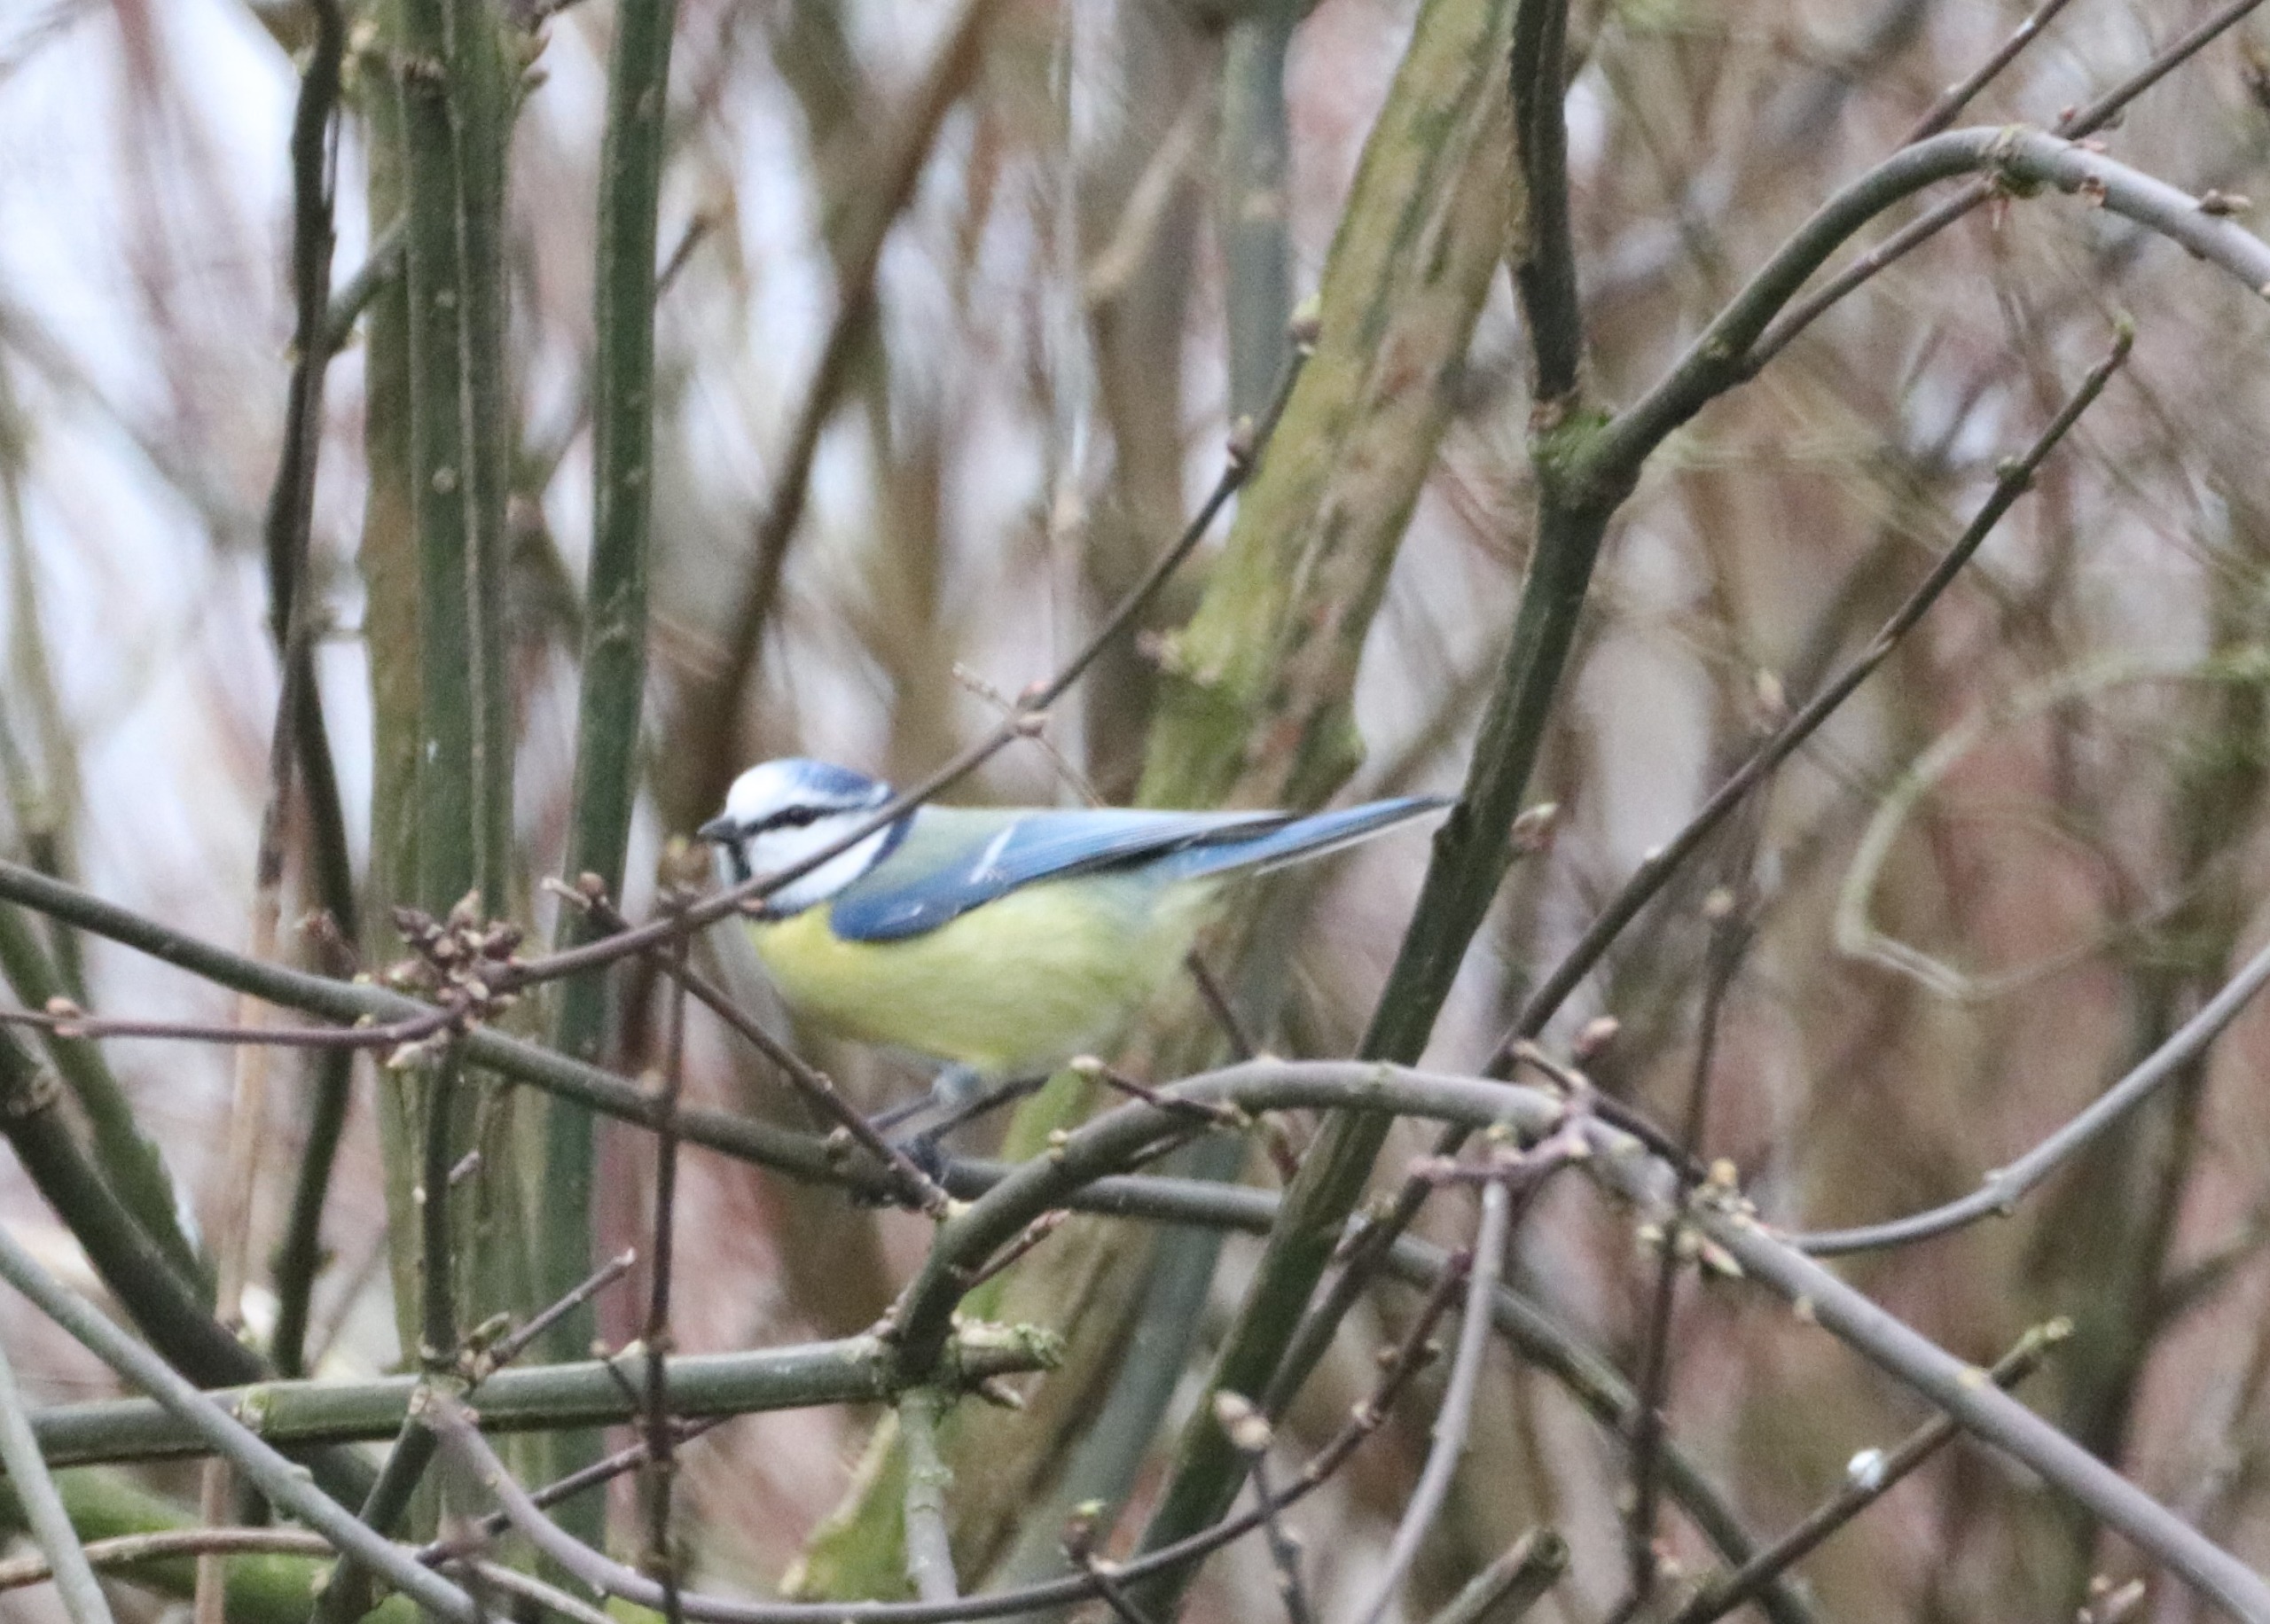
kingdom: Animalia
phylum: Chordata
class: Aves
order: Passeriformes
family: Paridae
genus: Cyanistes
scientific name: Cyanistes caeruleus
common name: Blåmejse
